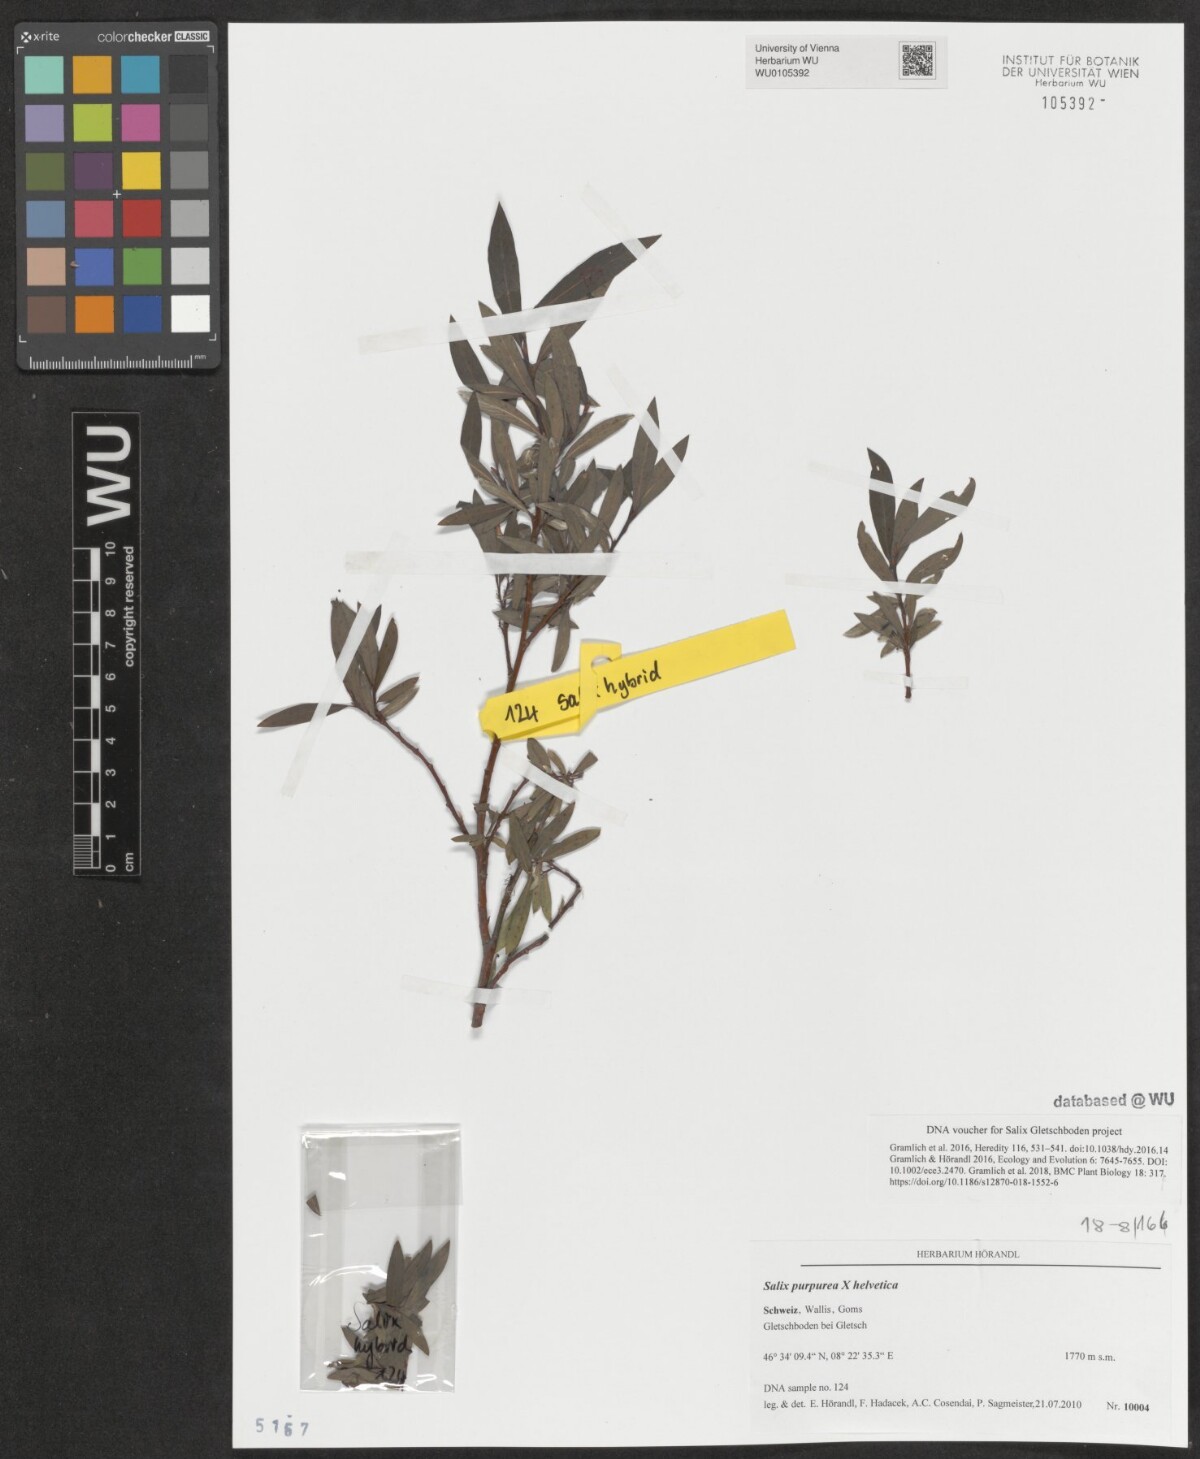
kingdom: Plantae
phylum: Tracheophyta
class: Magnoliopsida
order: Malpighiales
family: Salicaceae
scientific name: Salicaceae
